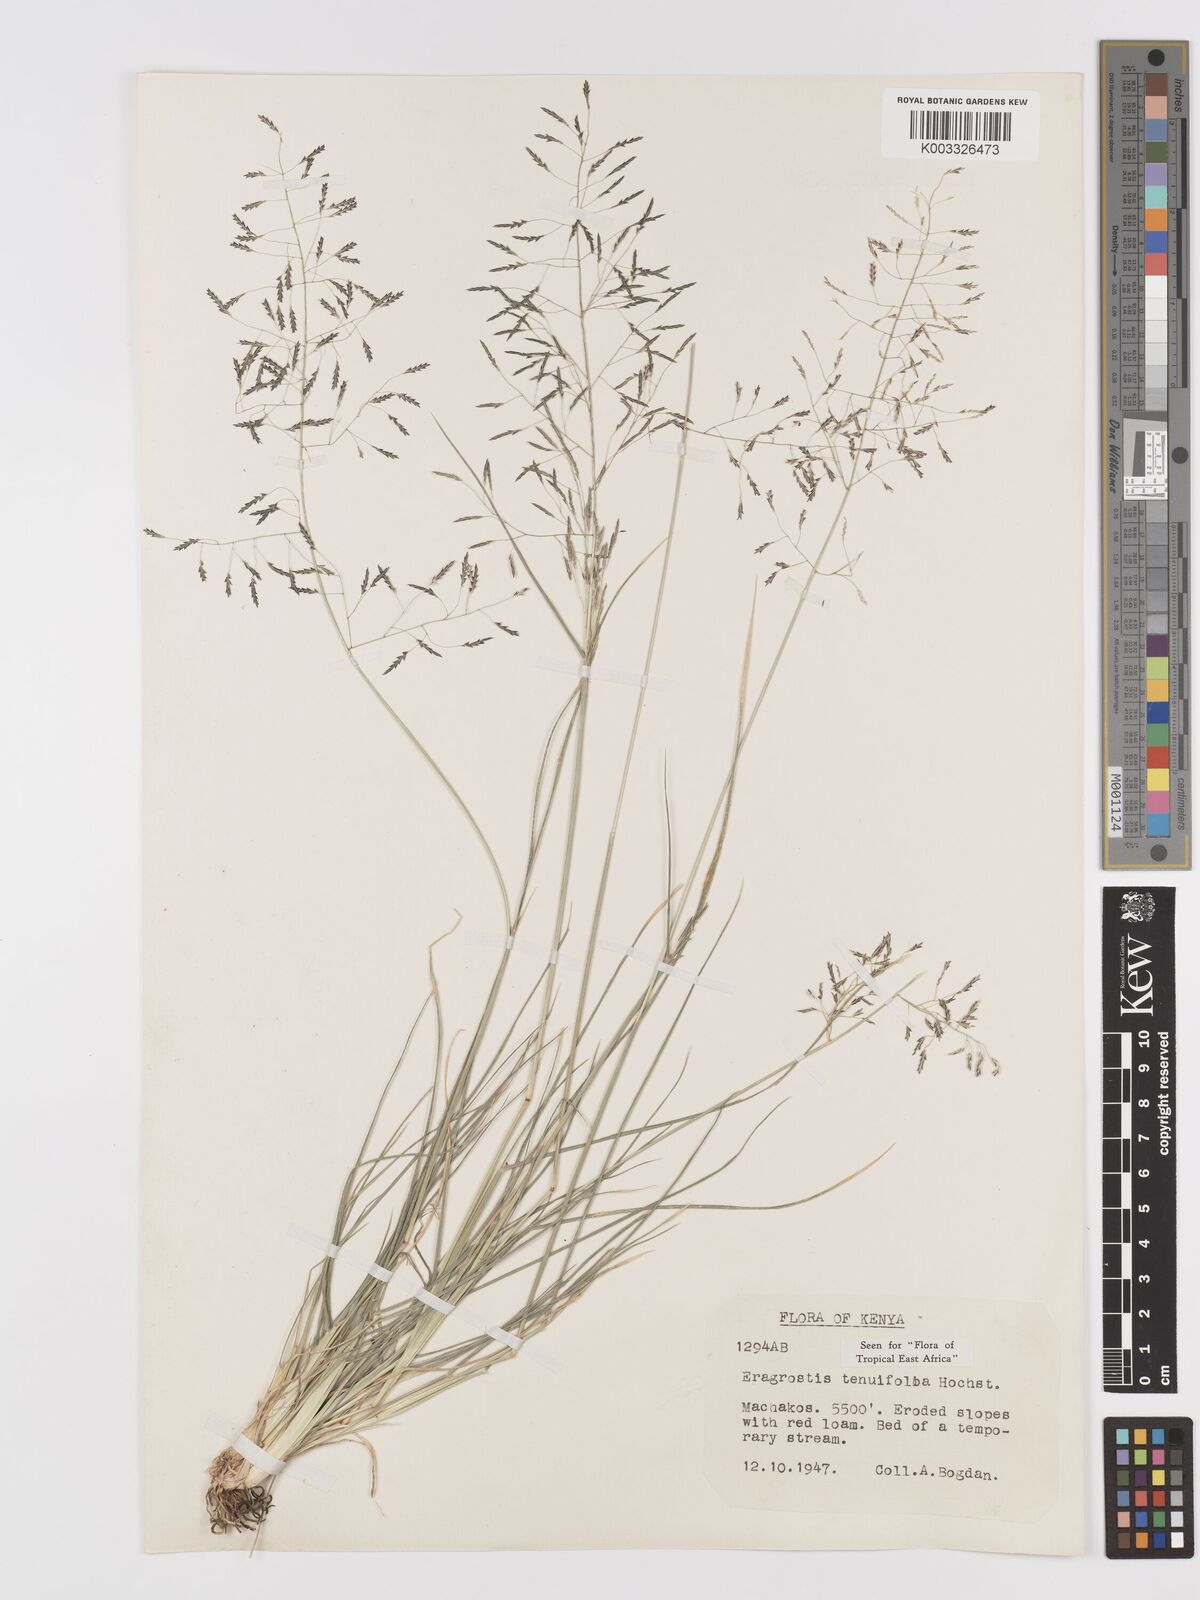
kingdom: Plantae
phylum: Tracheophyta
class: Liliopsida
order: Poales
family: Poaceae
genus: Eragrostis
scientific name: Eragrostis tenuifolia
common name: Elastic grass
